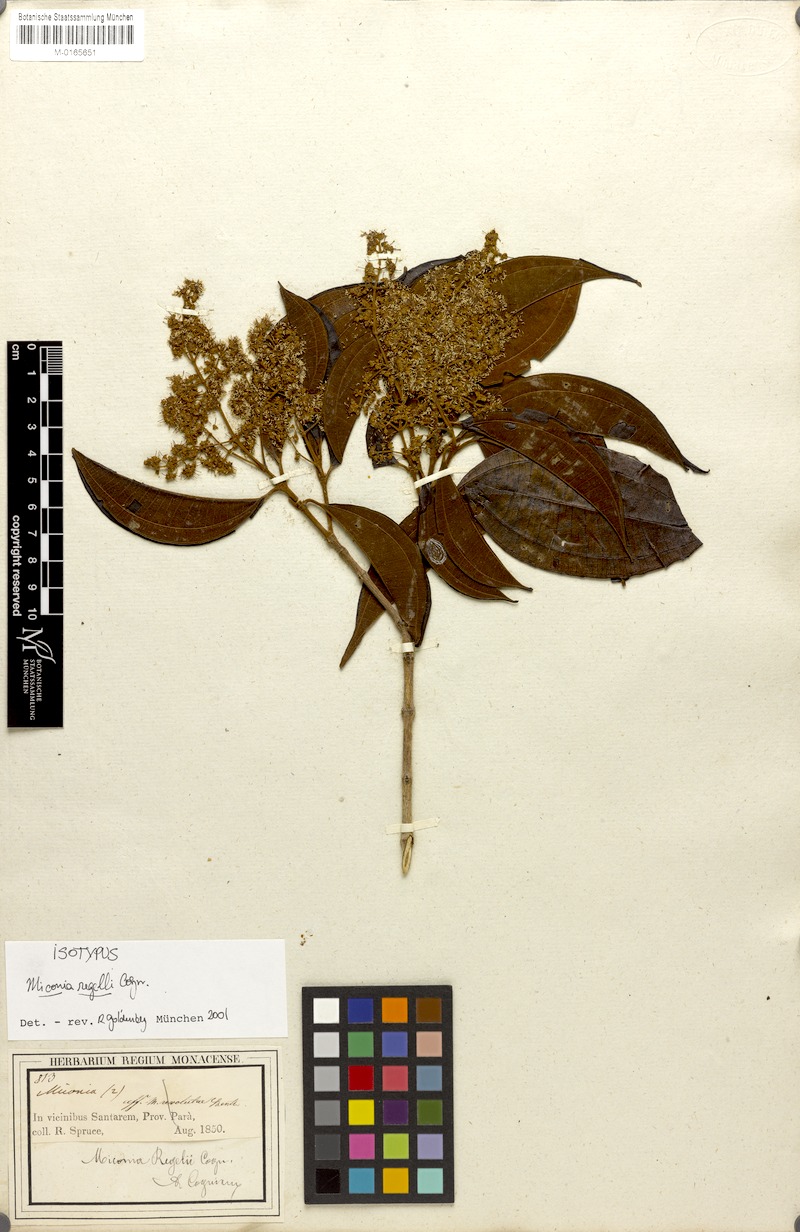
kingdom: Plantae
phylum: Tracheophyta
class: Magnoliopsida
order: Myrtales
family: Melastomataceae
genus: Miconia
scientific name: Miconia regelii
